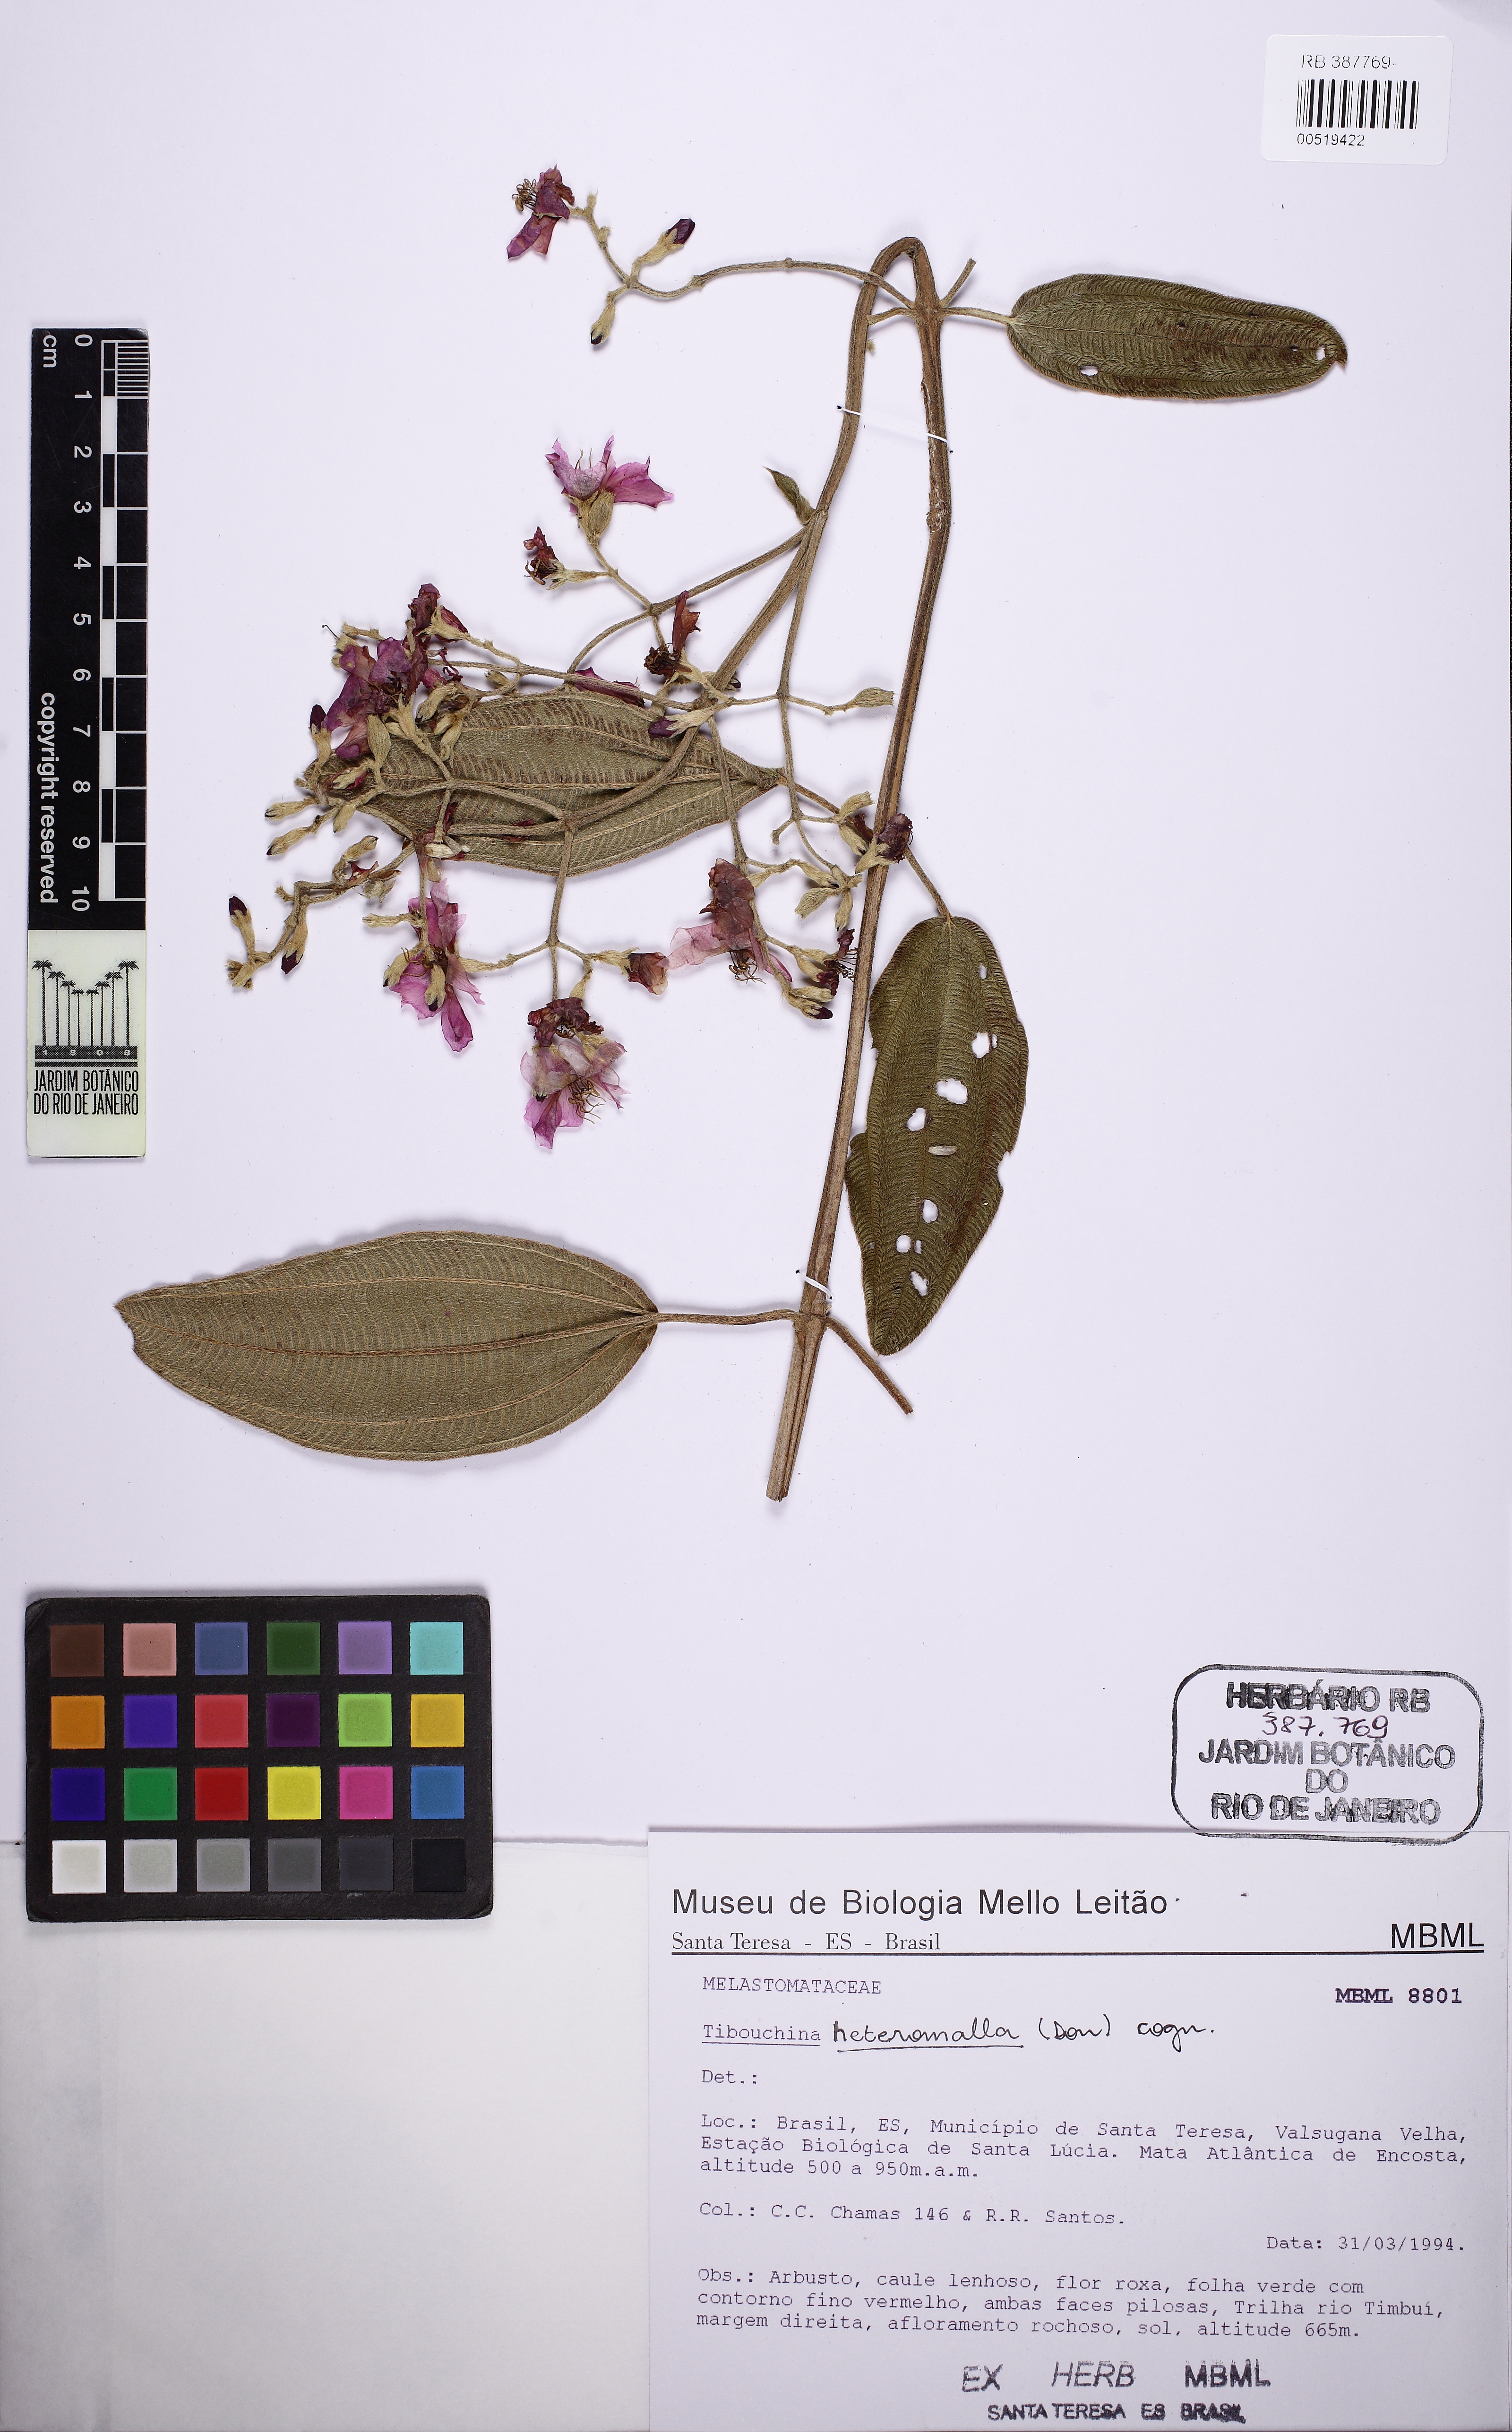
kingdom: Plantae
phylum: Tracheophyta
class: Magnoliopsida
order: Myrtales
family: Melastomataceae
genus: Pleroma
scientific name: Pleroma heteromallum
